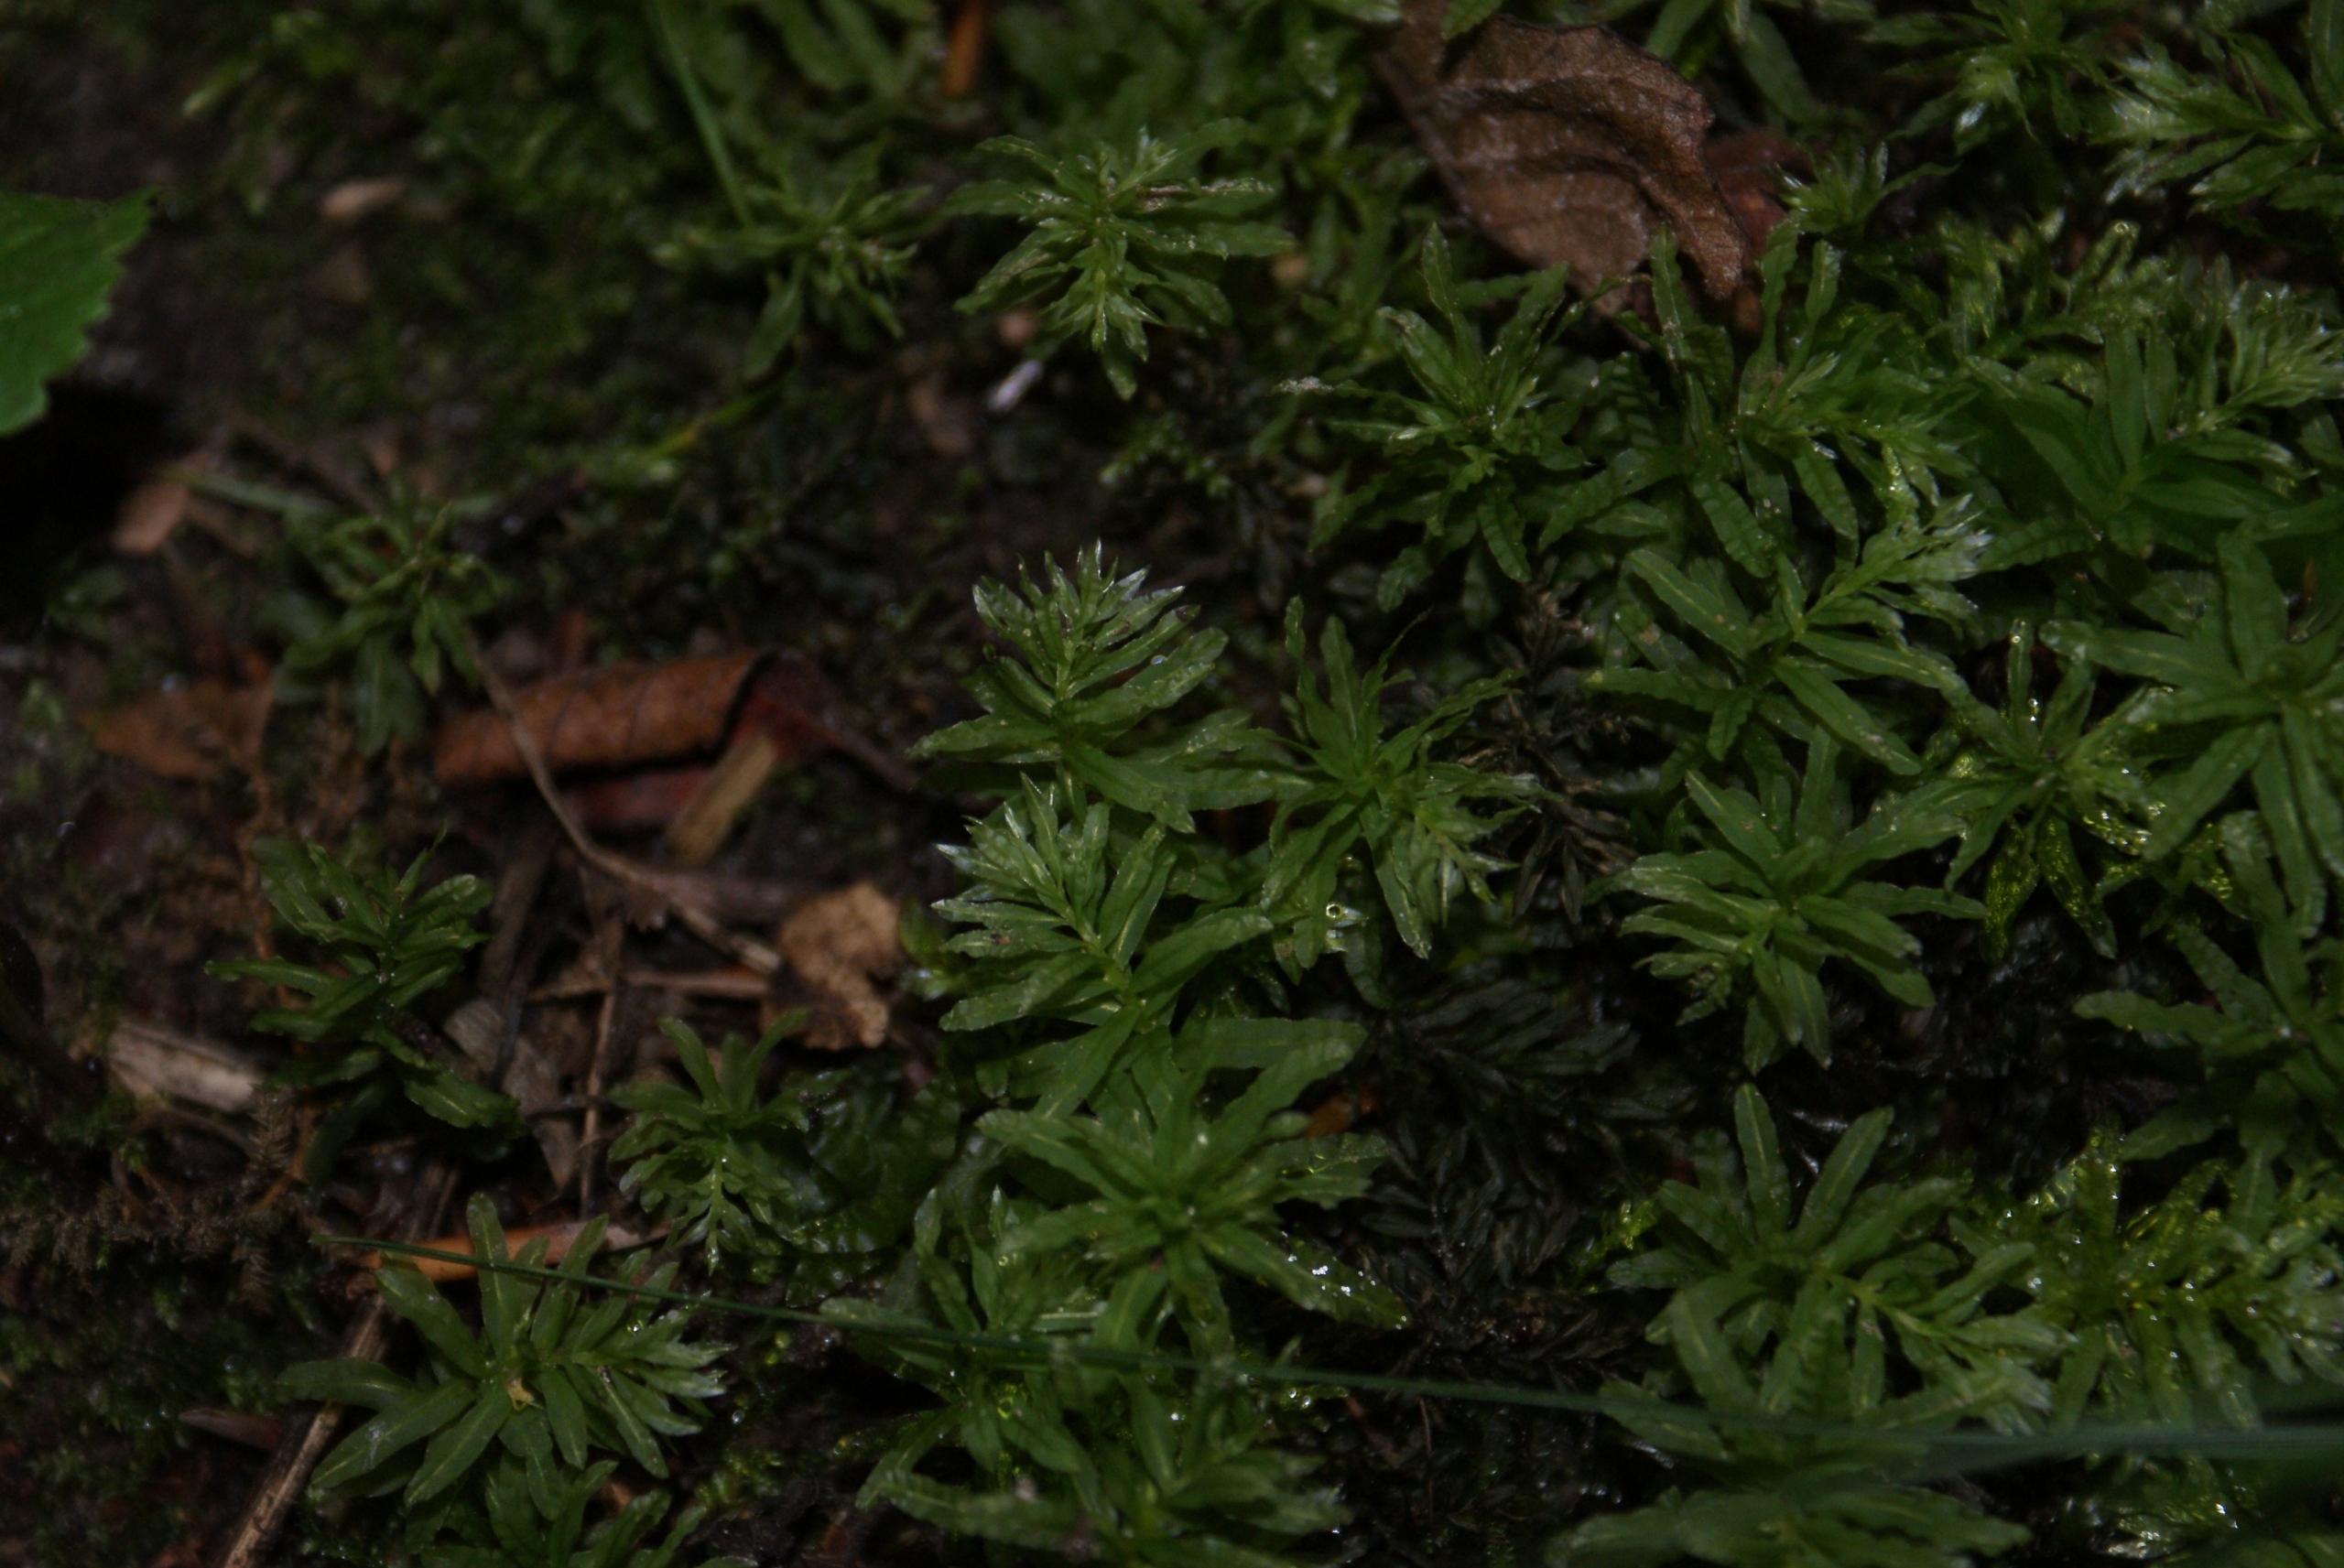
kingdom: Plantae
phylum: Bryophyta
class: Bryopsida
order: Bryales
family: Mniaceae
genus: Plagiomnium
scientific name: Plagiomnium undulatum
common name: Bølget krybstjerne
